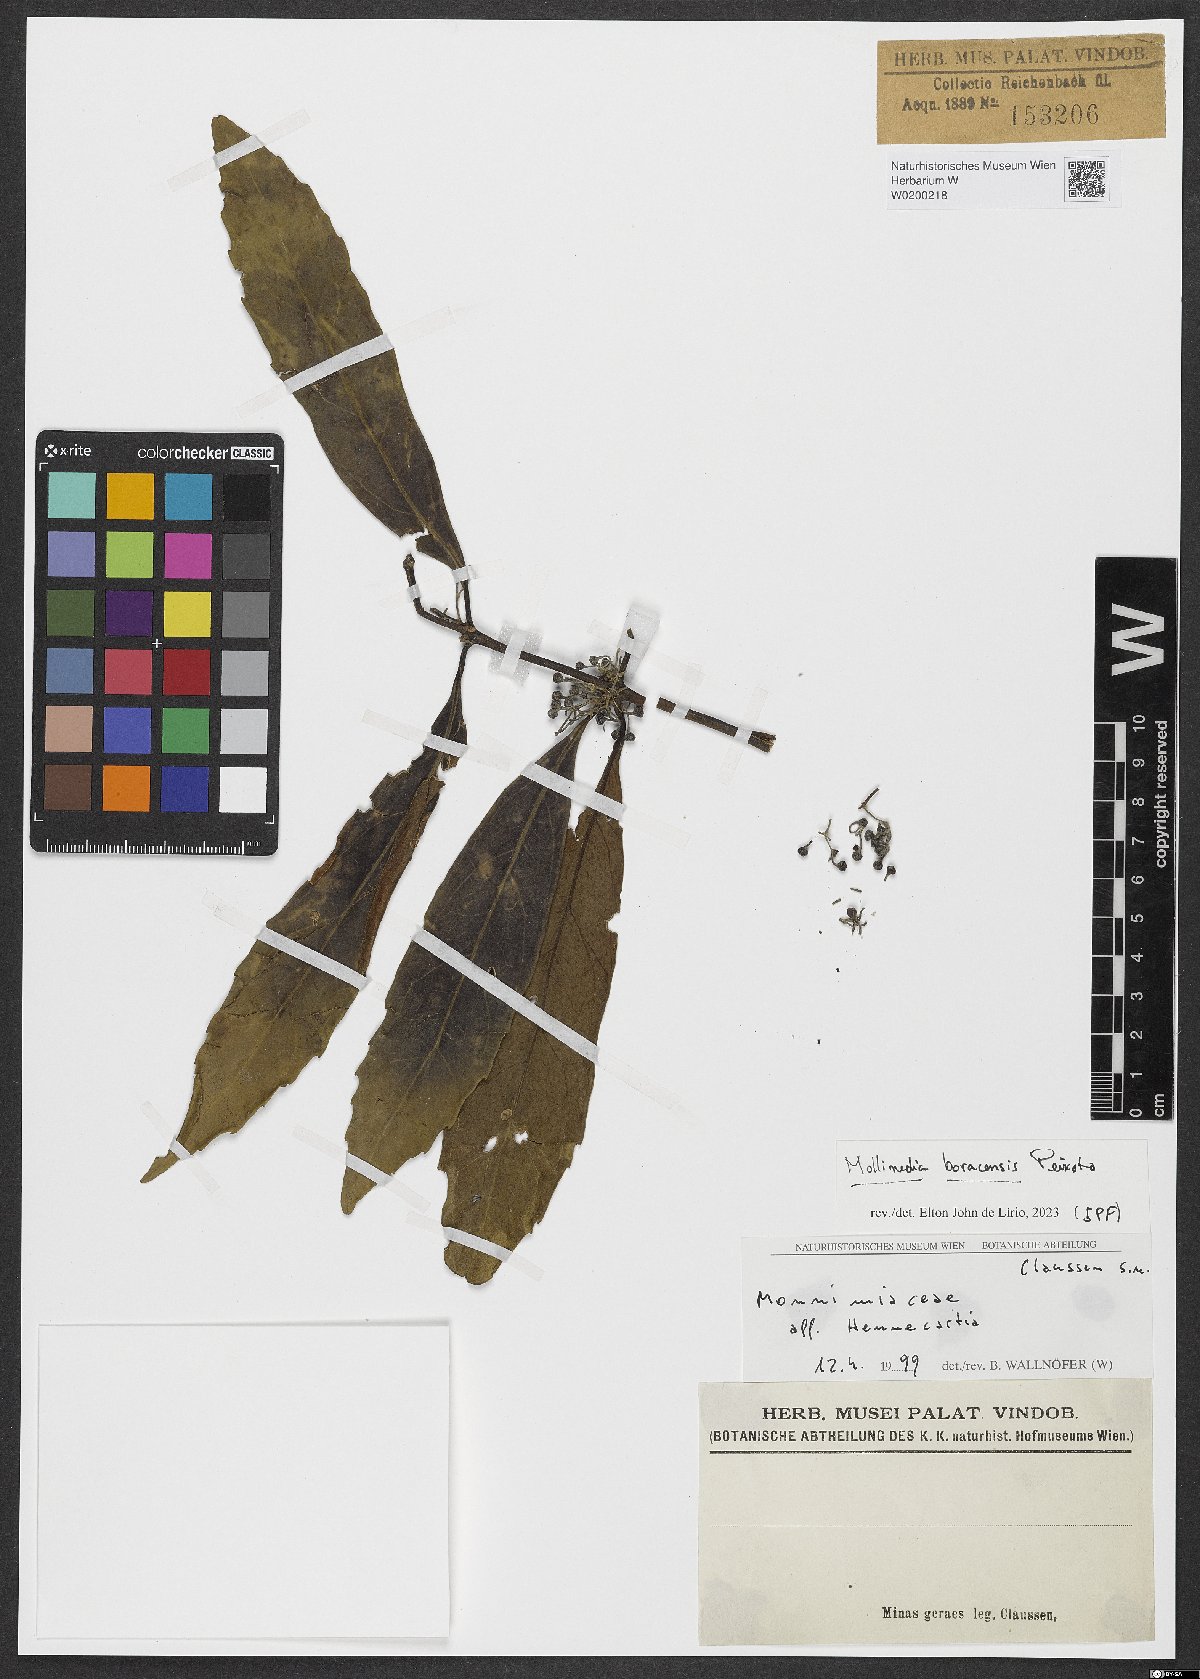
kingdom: Plantae
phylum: Tracheophyta
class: Magnoliopsida
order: Laurales
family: Monimiaceae
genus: Mollinedia
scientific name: Mollinedia boracensis
